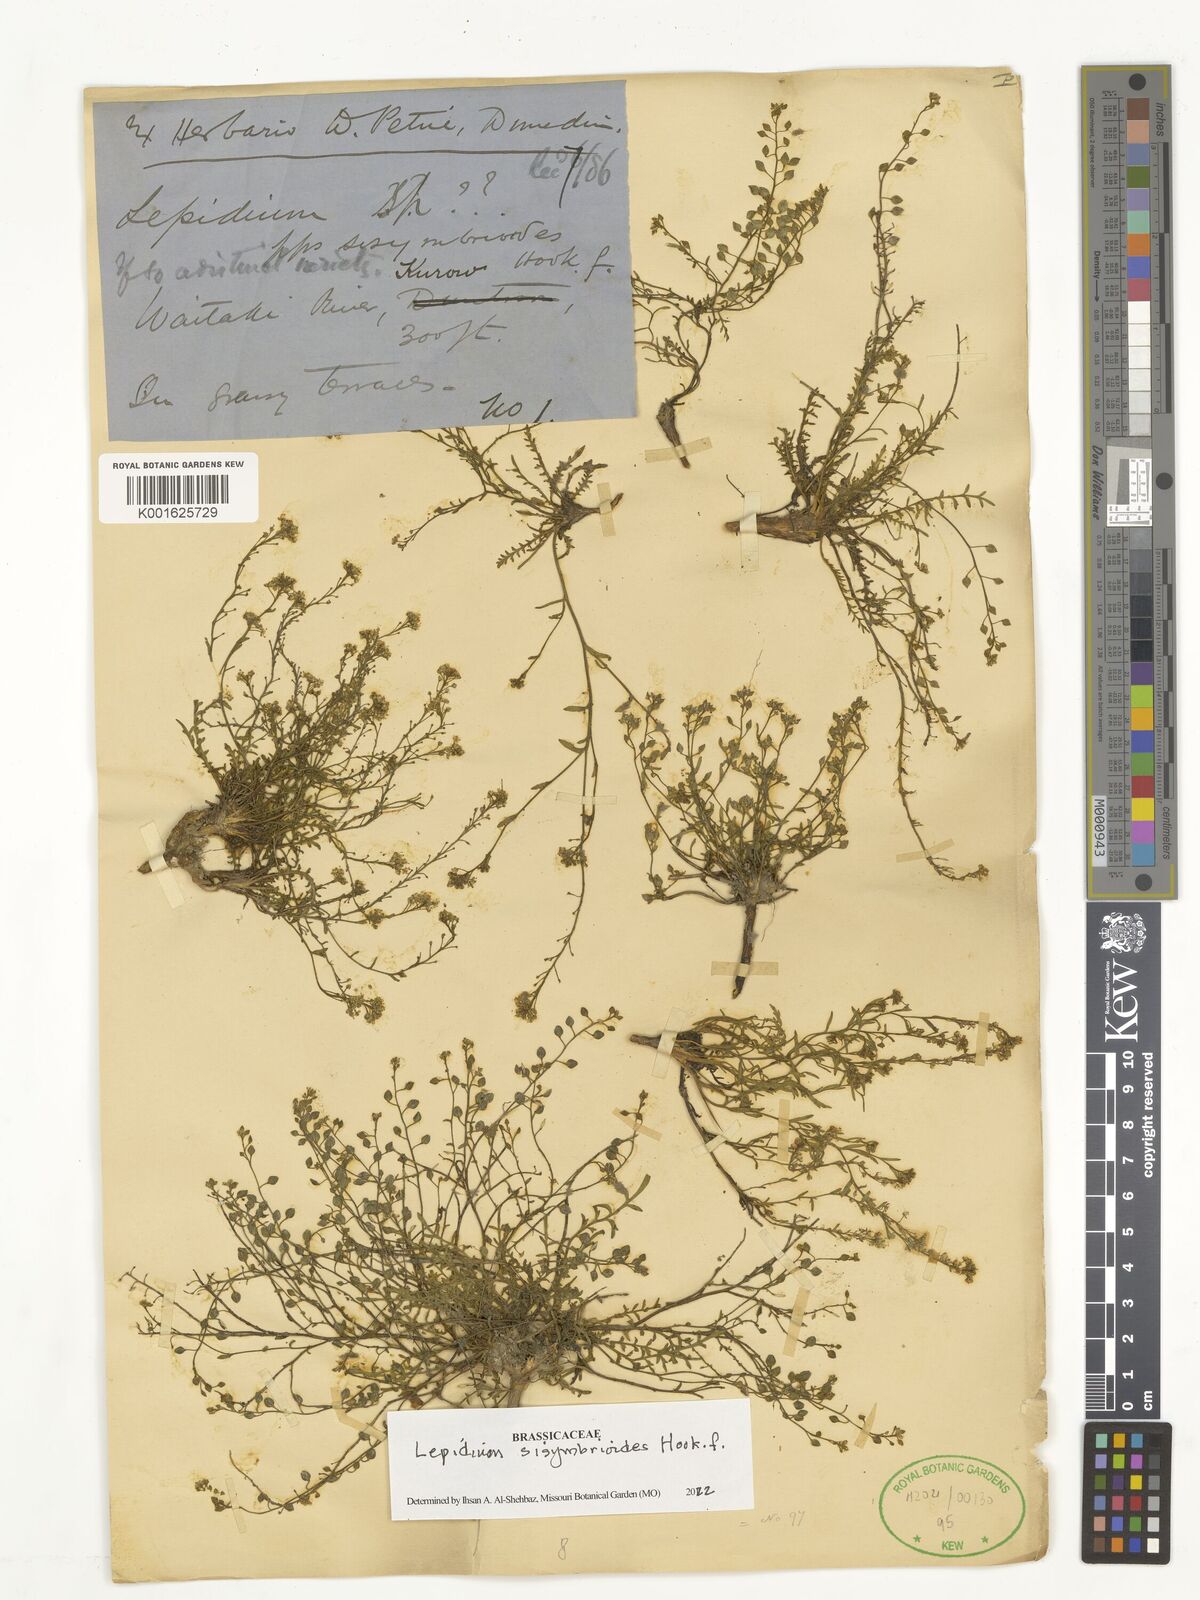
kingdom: Plantae
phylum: Tracheophyta
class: Magnoliopsida
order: Brassicales
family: Brassicaceae
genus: Lepidium
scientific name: Lepidium sisymbrioides
